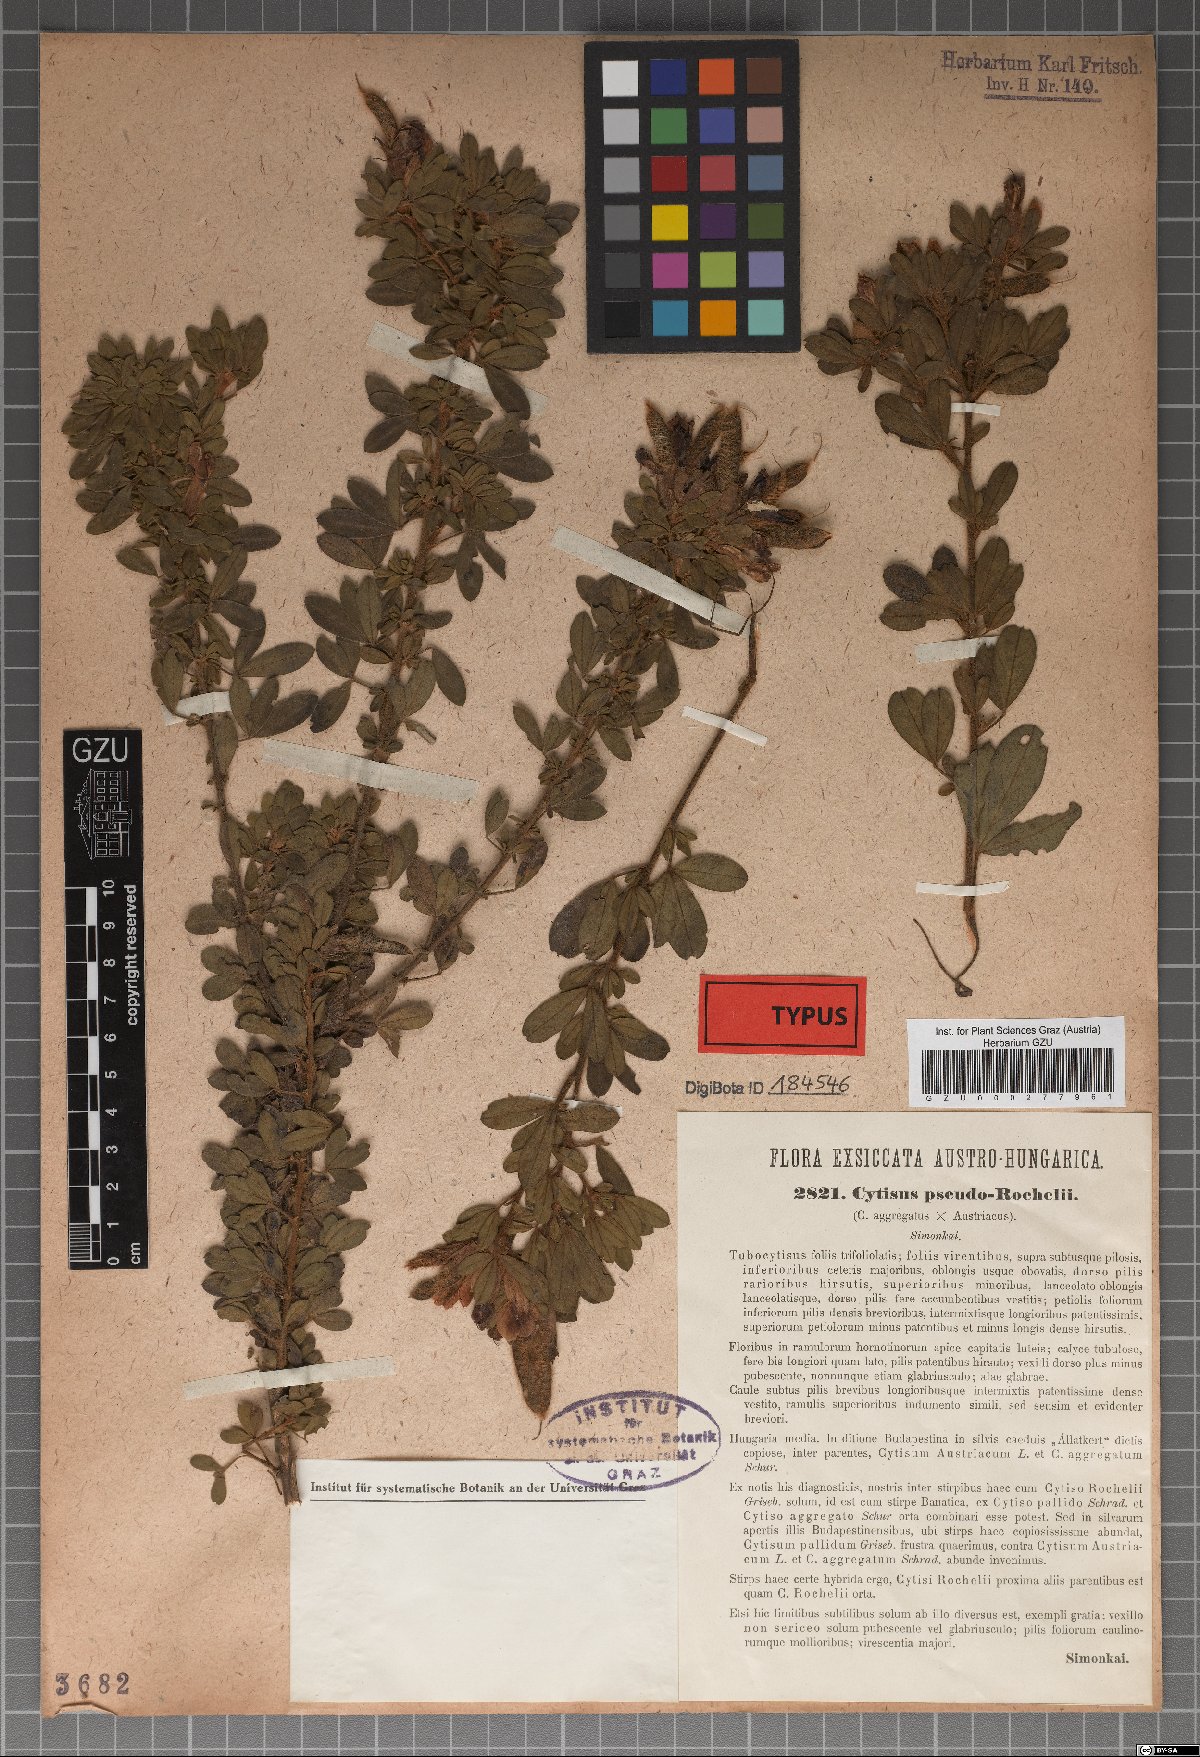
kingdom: Plantae
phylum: Tracheophyta
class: Magnoliopsida
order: Fabales
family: Fabaceae
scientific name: Fabaceae
